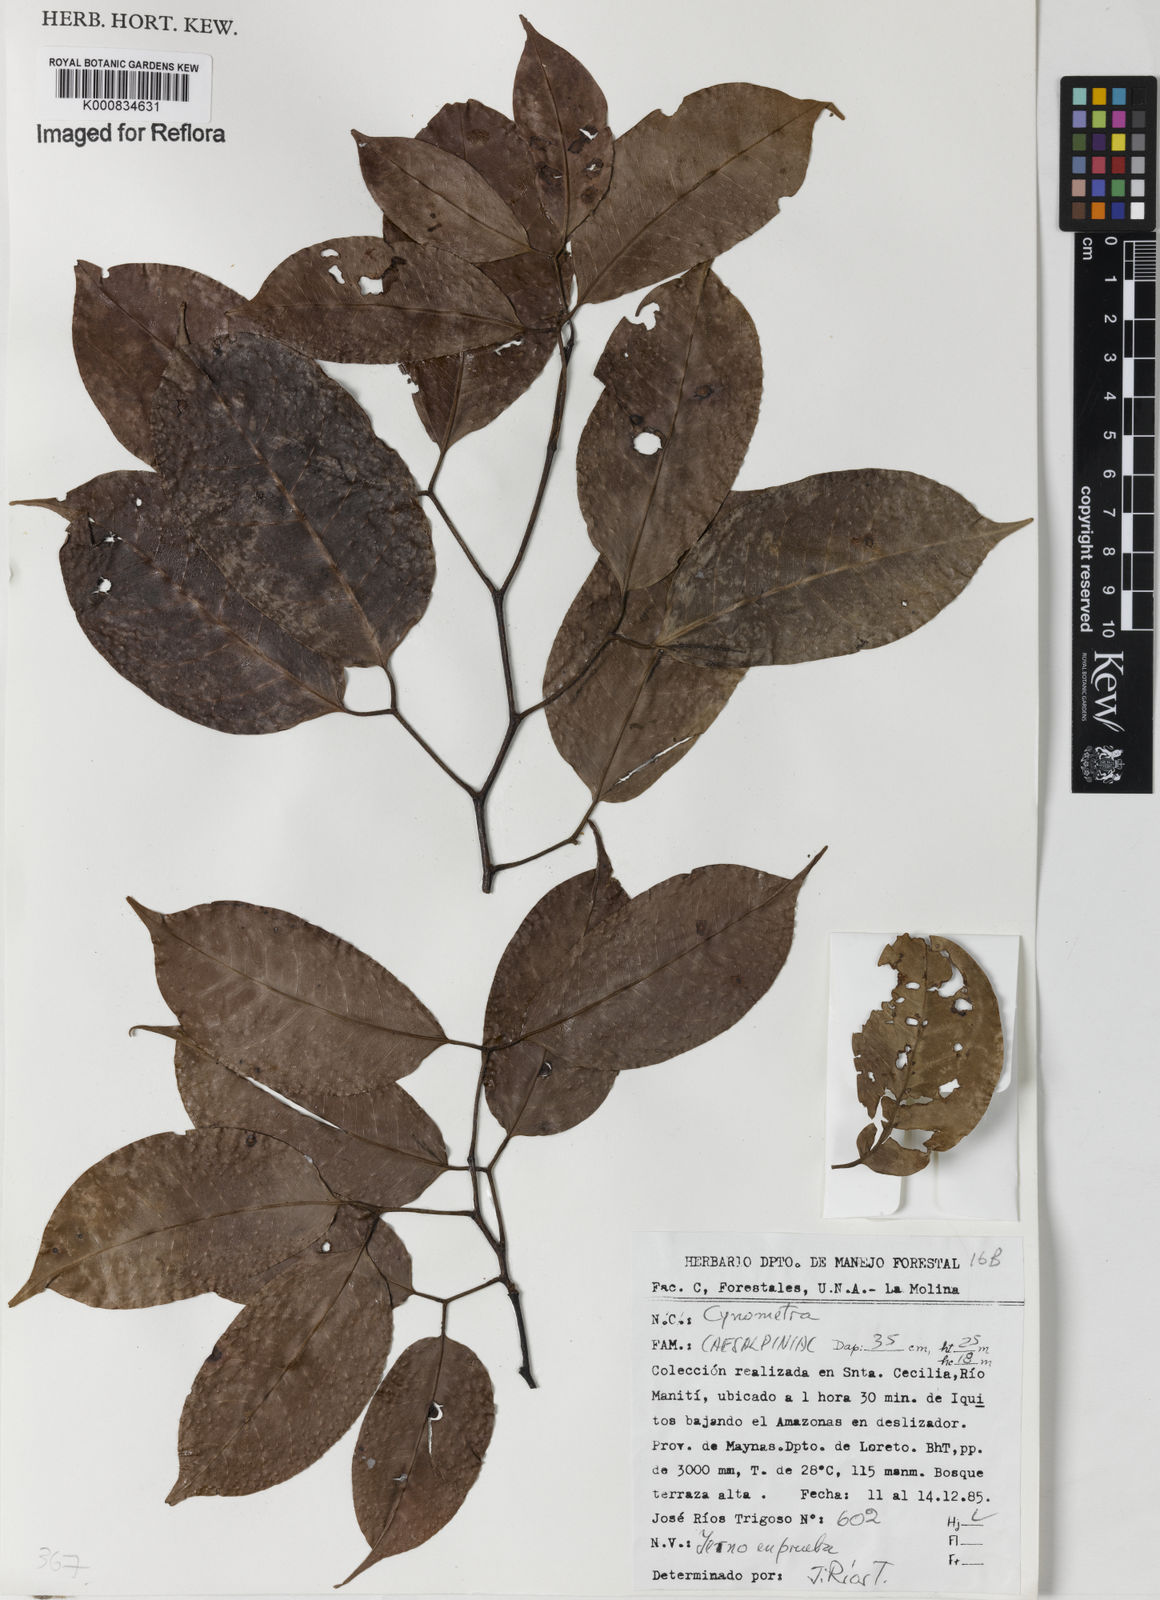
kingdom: Plantae
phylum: Tracheophyta
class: Magnoliopsida
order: Fabales
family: Fabaceae
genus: Peltogyne
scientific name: Peltogyne
